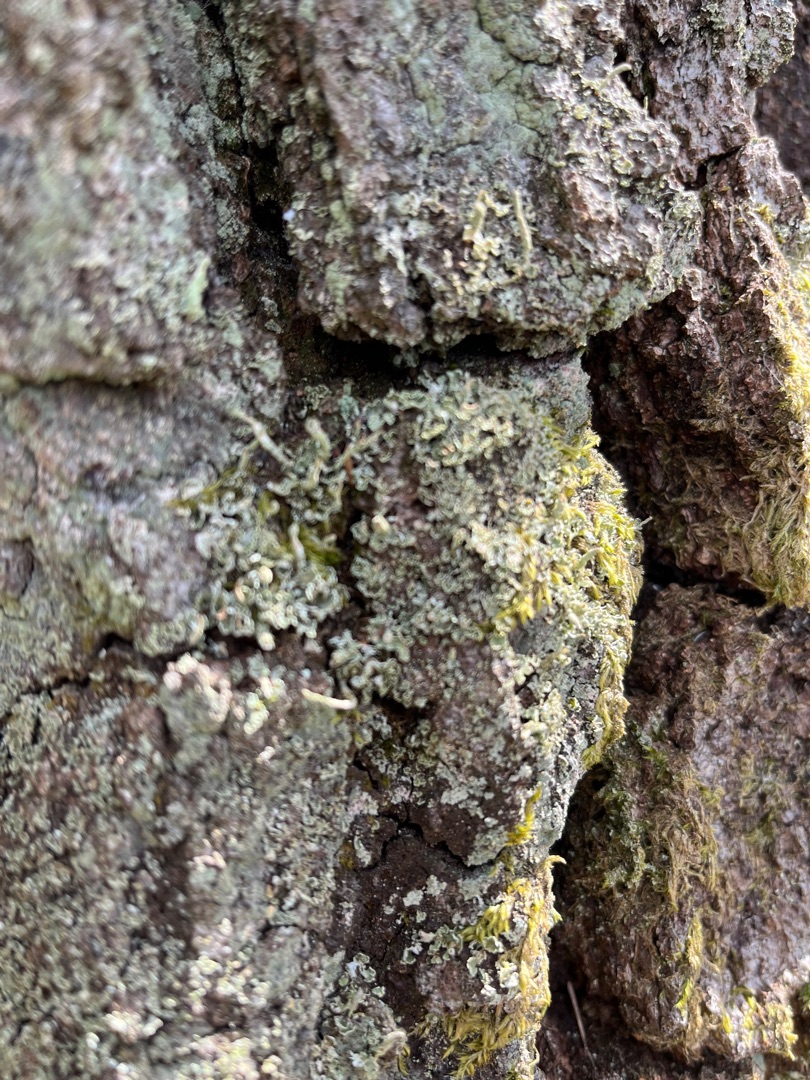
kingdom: Fungi
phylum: Ascomycota
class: Lecanoromycetes
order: Lecanorales
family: Cladoniaceae
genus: Cladonia
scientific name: Cladonia
